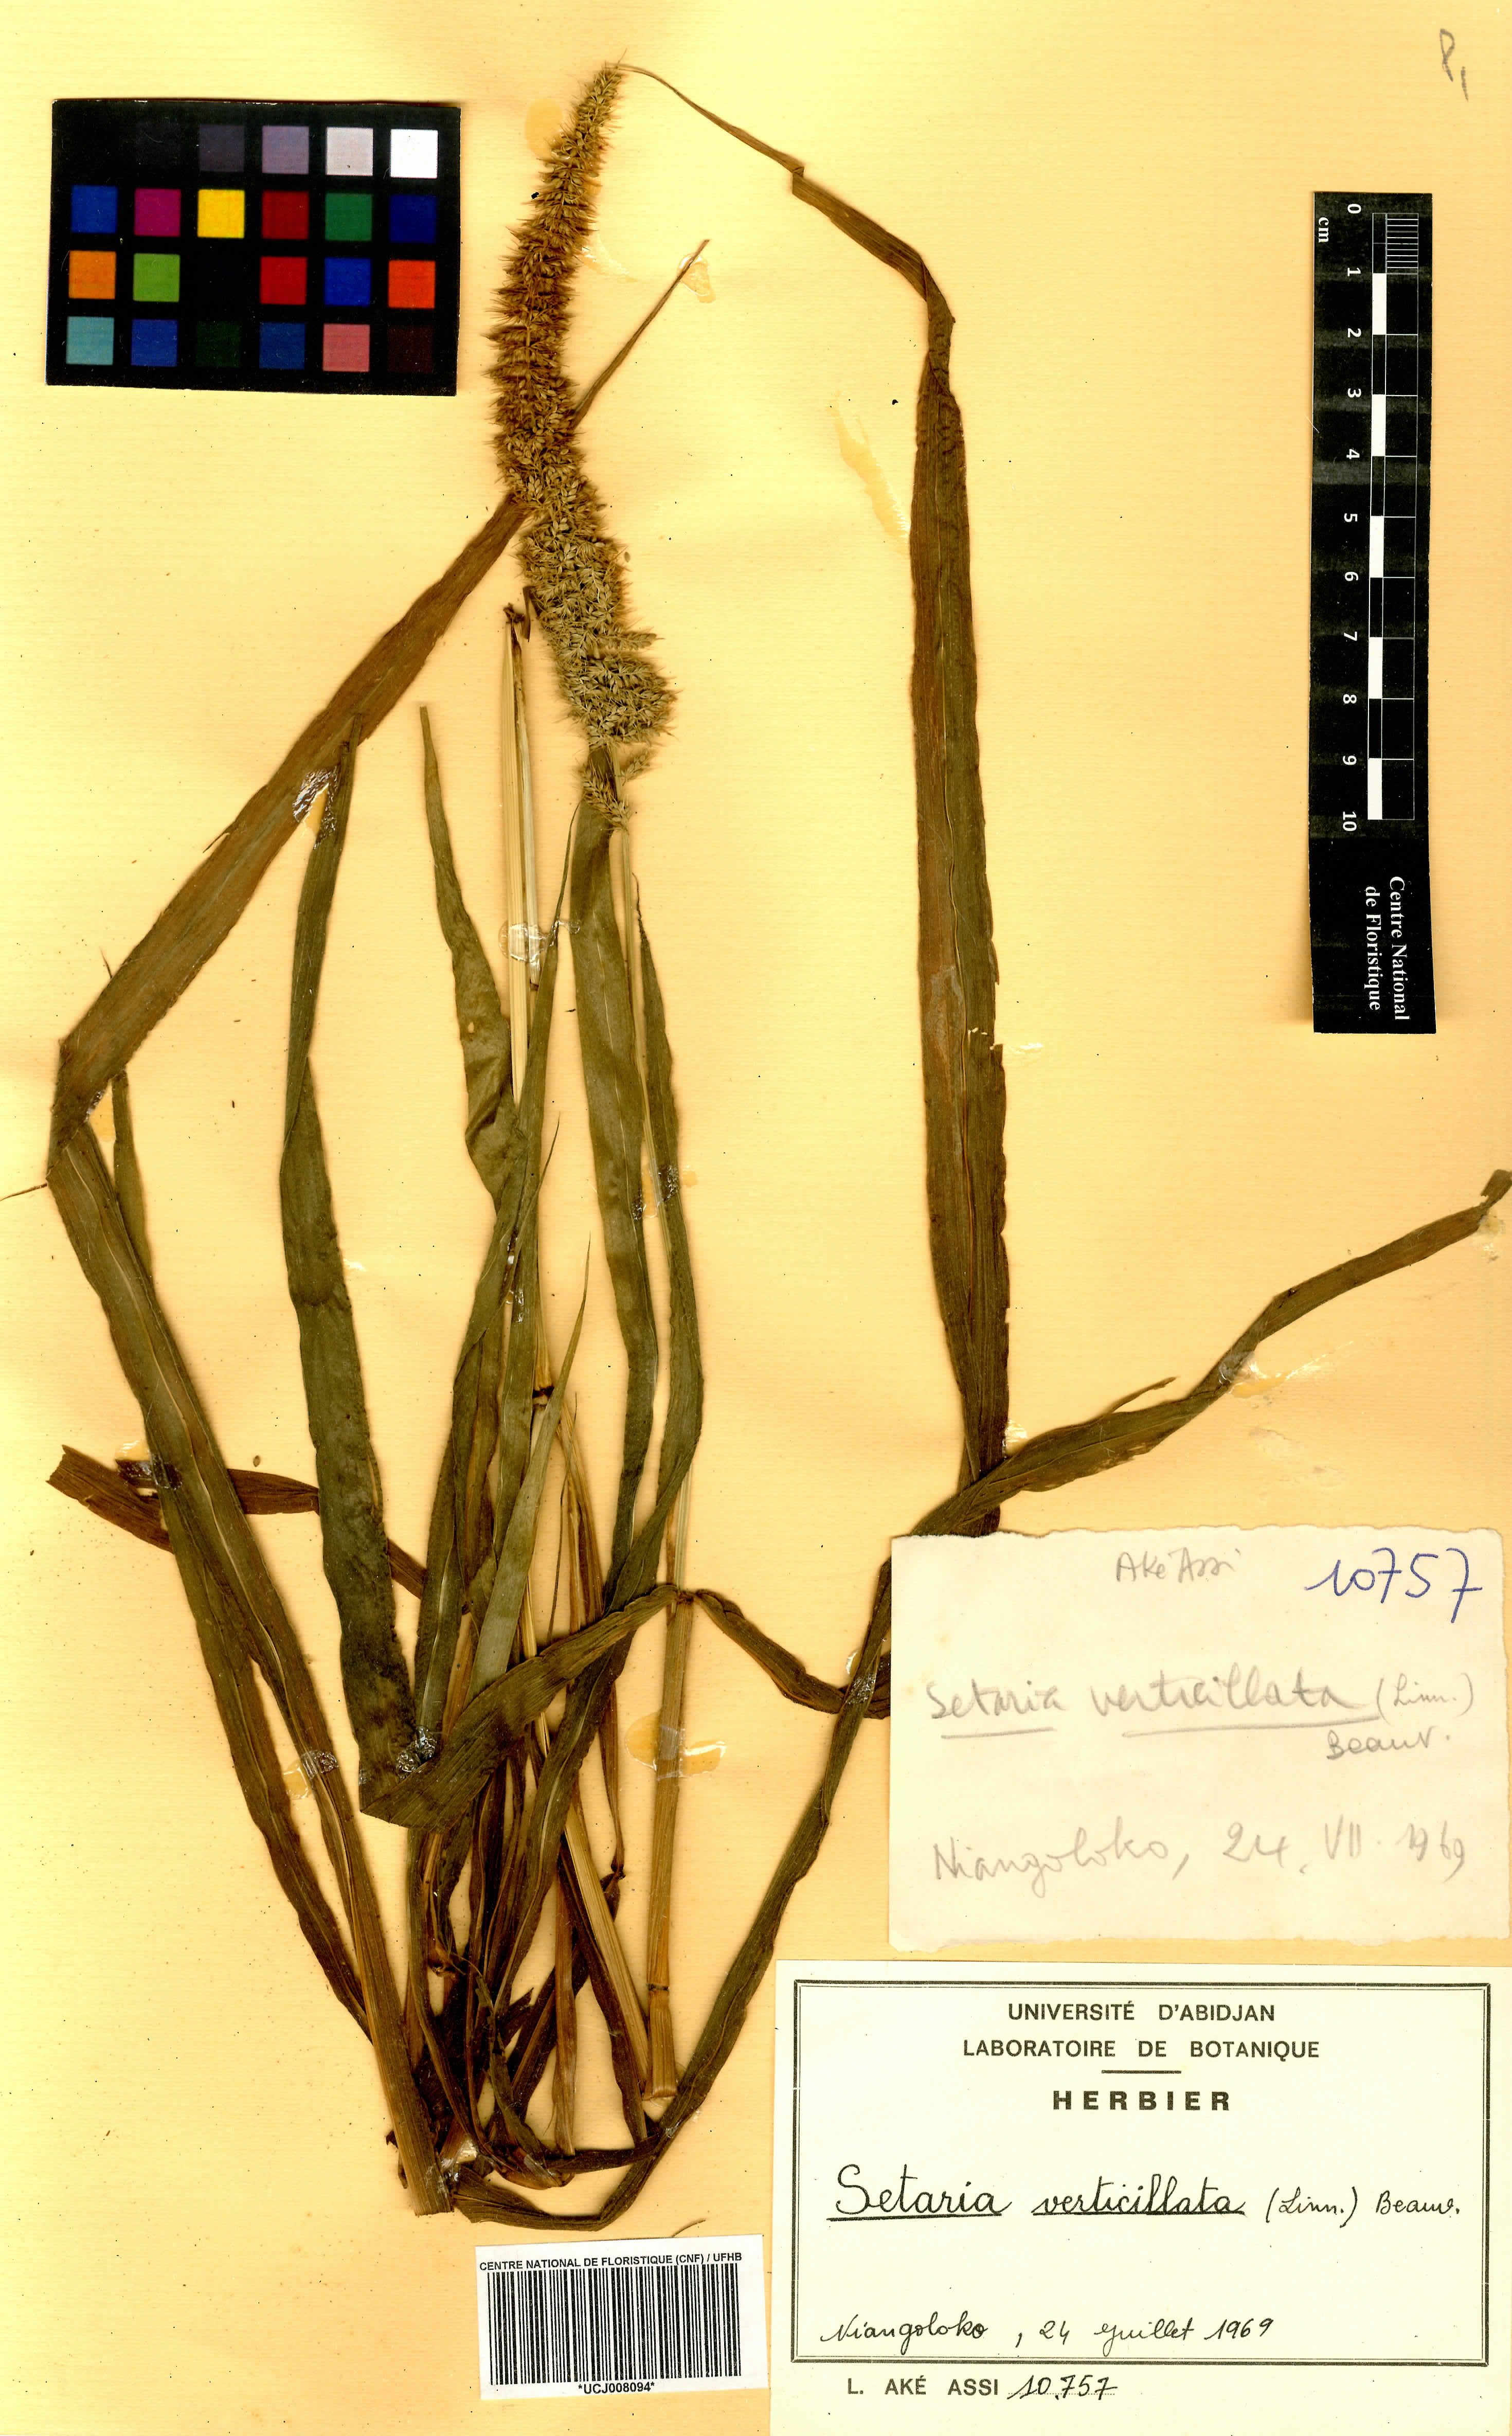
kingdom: Plantae
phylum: Tracheophyta
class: Liliopsida
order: Poales
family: Poaceae
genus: Setaria
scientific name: Setaria verticillata
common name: Hooked bristlegrass
